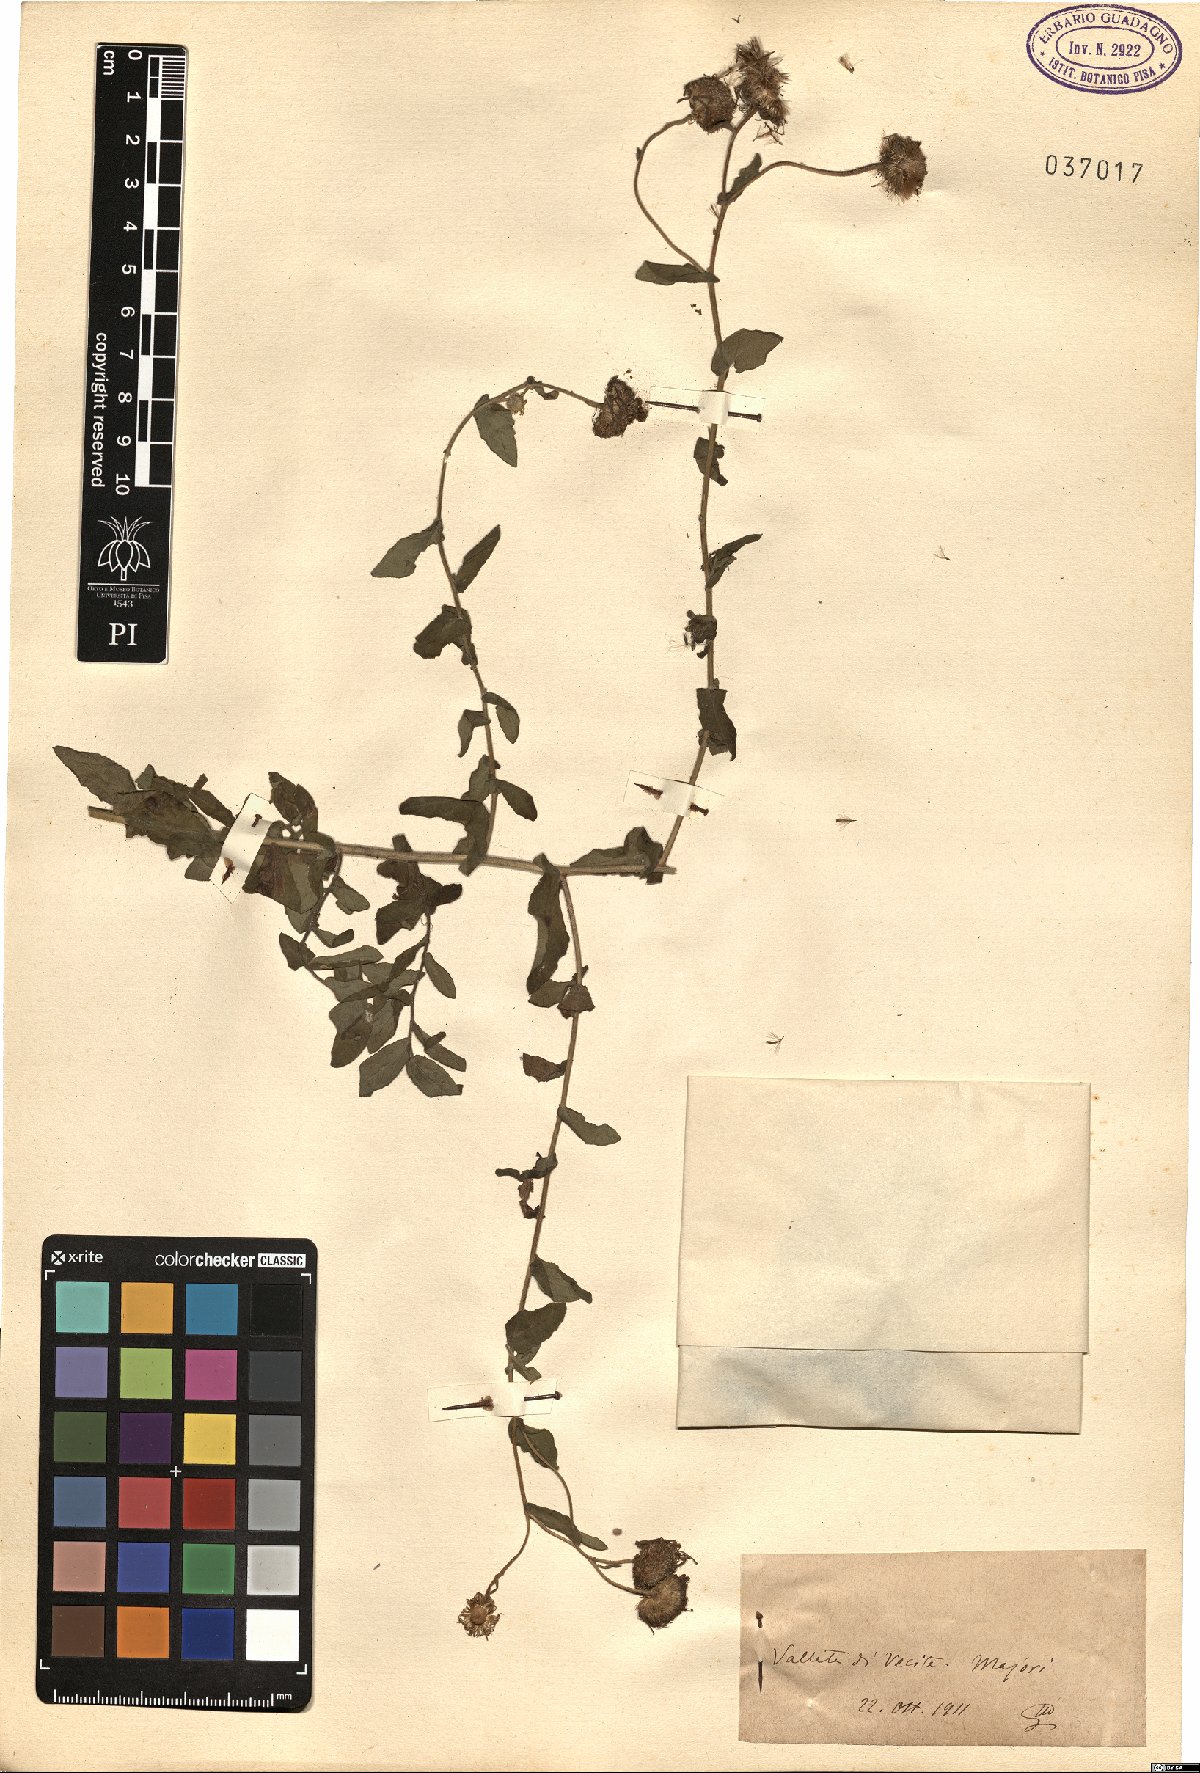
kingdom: Plantae
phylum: Tracheophyta
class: Magnoliopsida
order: Asterales
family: Asteraceae
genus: Pulicaria
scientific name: Pulicaria
